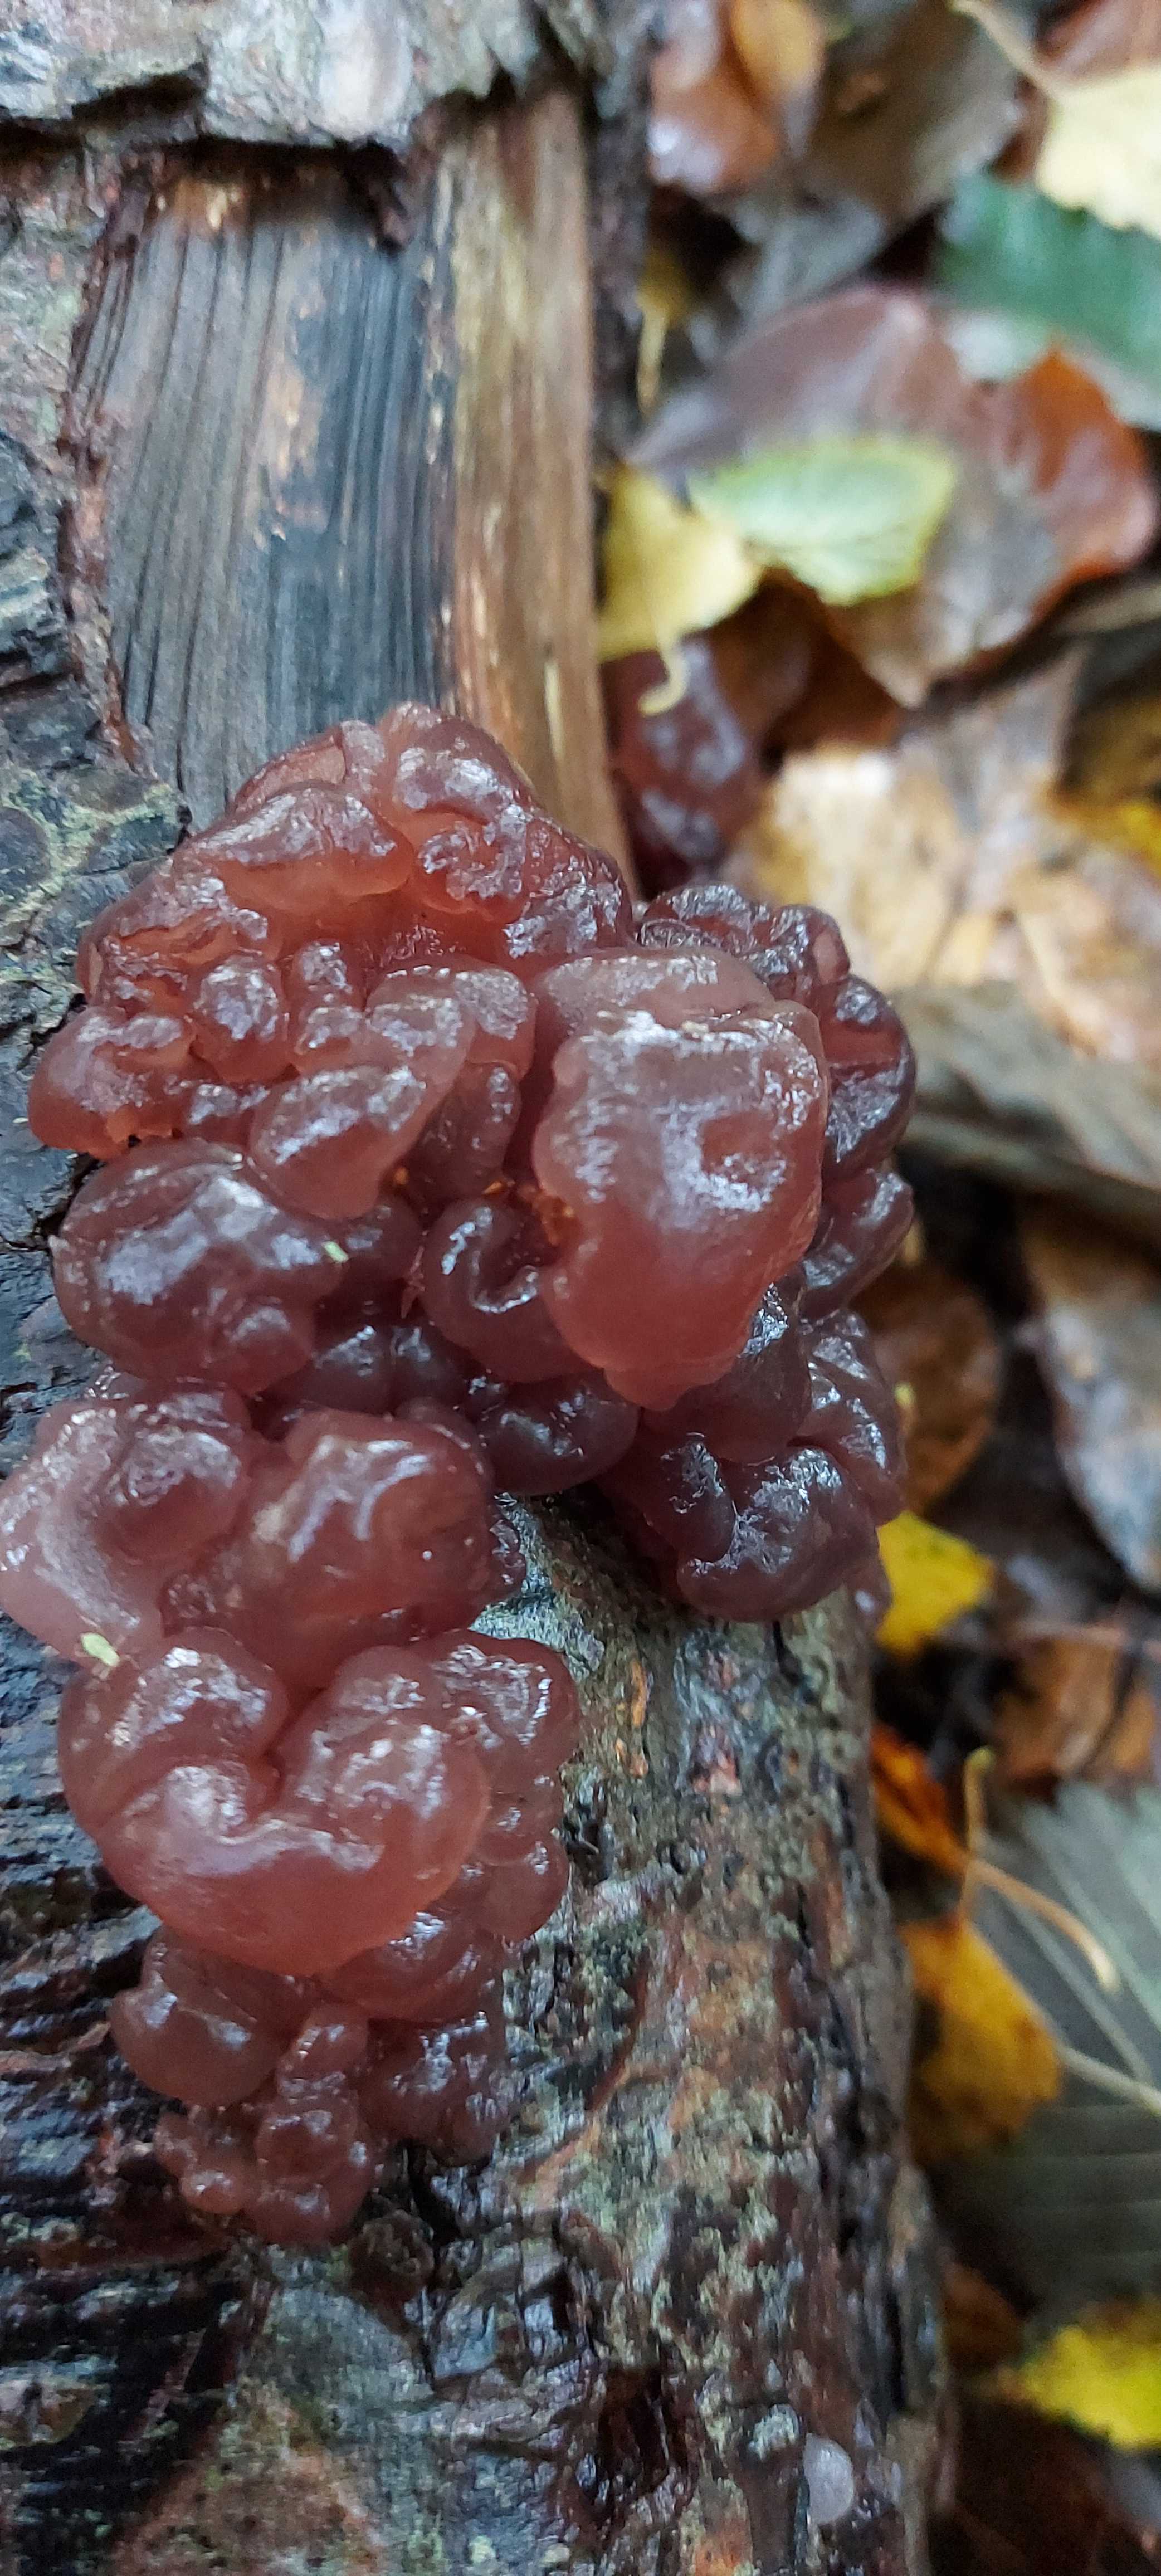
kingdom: Fungi
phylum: Ascomycota
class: Leotiomycetes
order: Helotiales
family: Gelatinodiscaceae
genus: Ascotremella
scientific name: Ascotremella faginea
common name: hjerne-bævreskive
